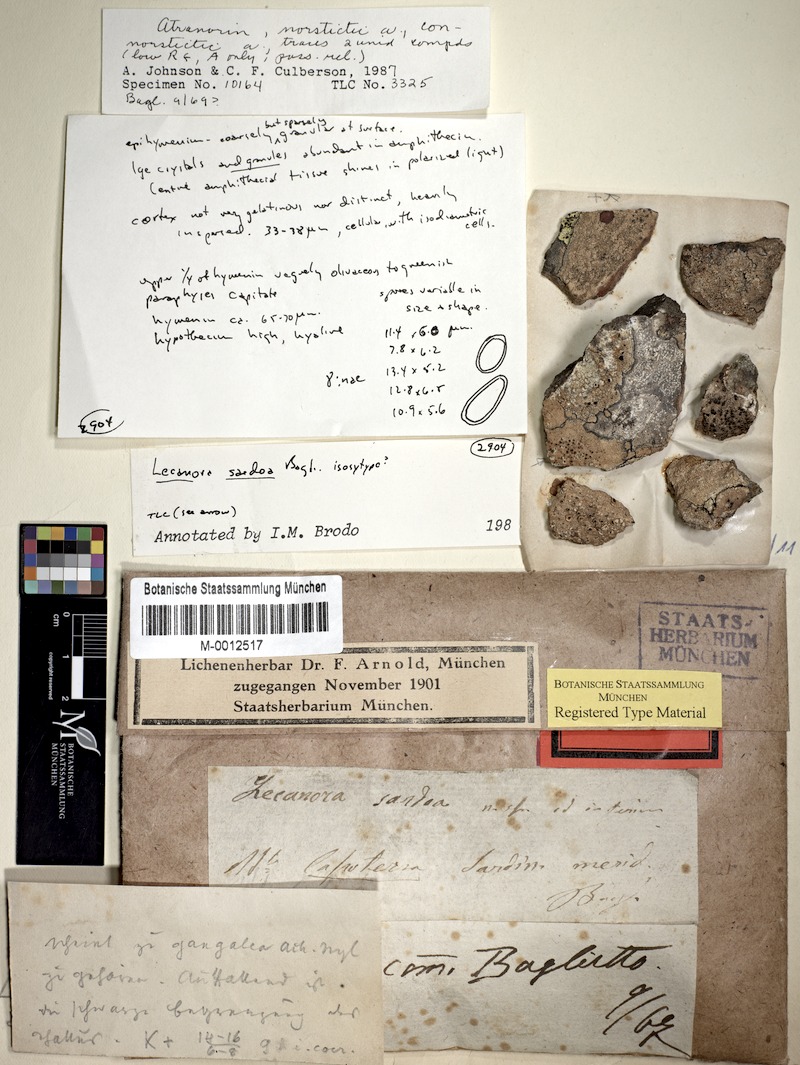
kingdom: Fungi
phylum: Ascomycota
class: Lecanoromycetes
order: Lecanorales
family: Lecanoraceae
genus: Lecanora
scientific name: Lecanora sardoa
